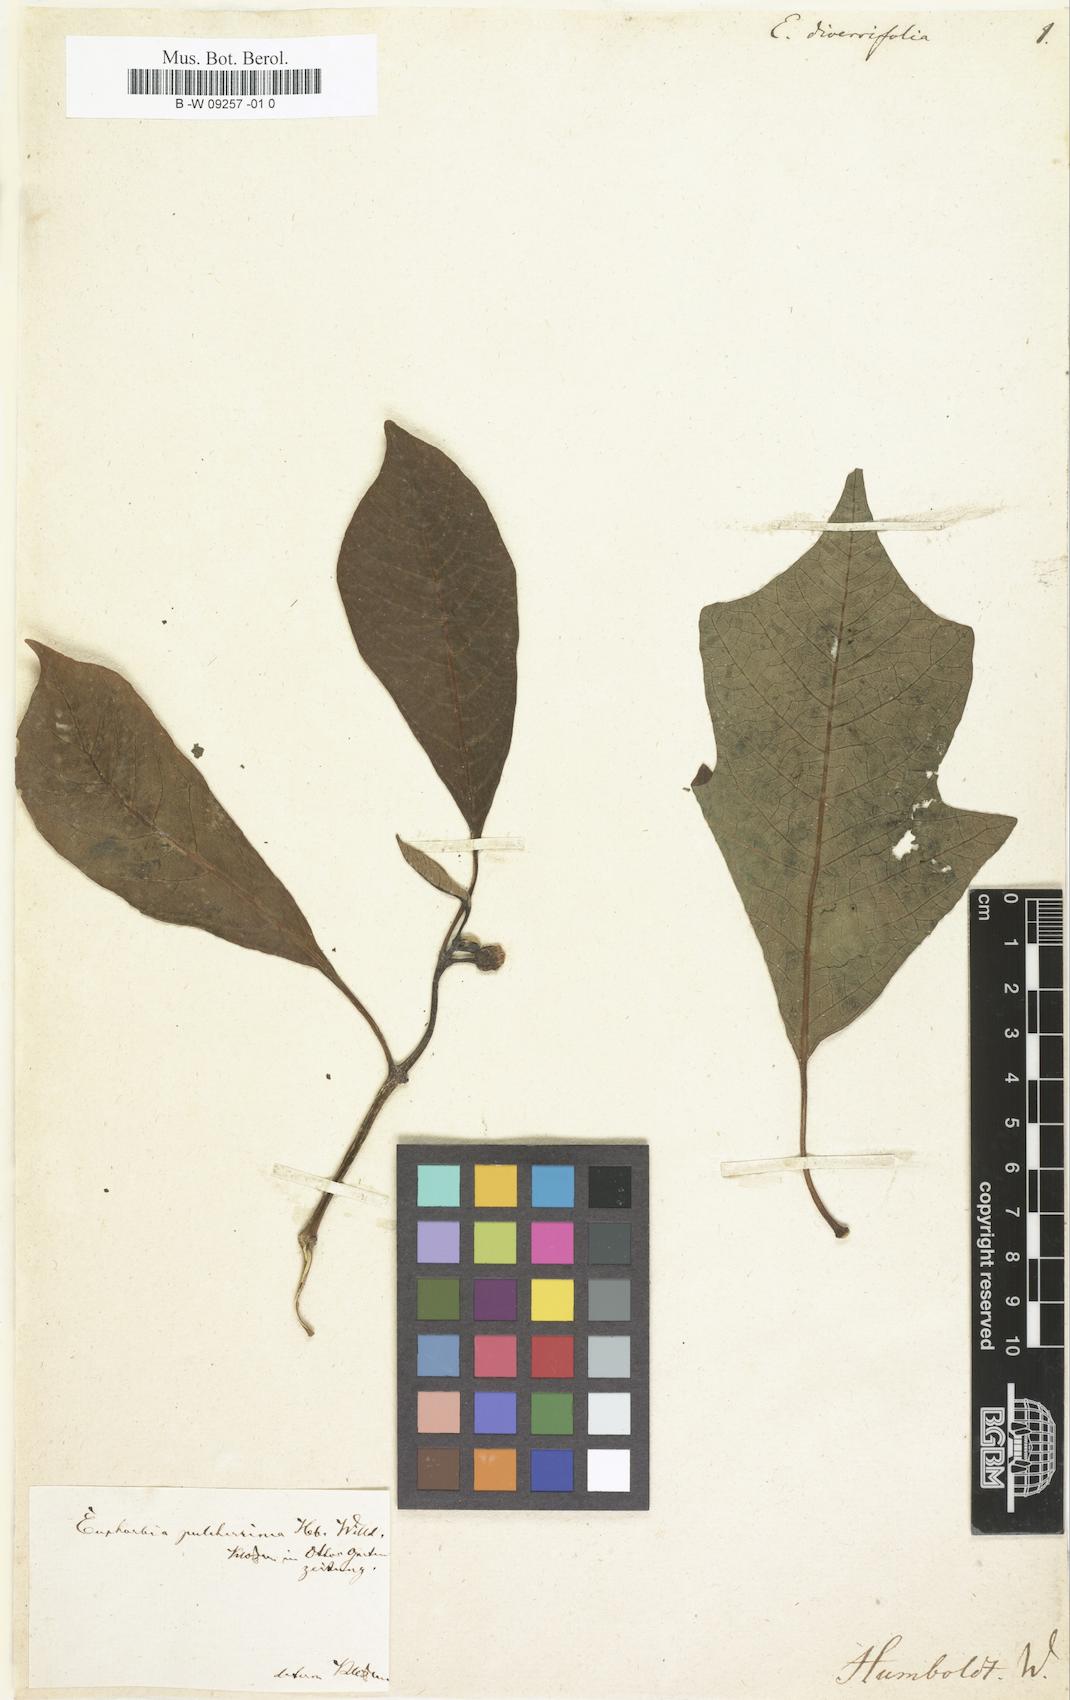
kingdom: Plantae
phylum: Tracheophyta
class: Magnoliopsida
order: Malpighiales
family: Euphorbiaceae
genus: Euphorbia
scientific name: Euphorbia pulcherrima
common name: Christmas-flower
